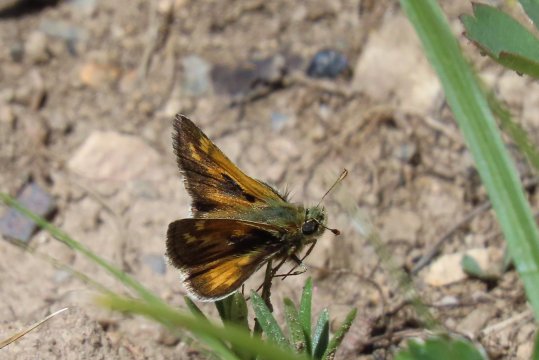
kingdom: Animalia
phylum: Arthropoda
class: Insecta
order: Lepidoptera
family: Hesperiidae
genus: Polites
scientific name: Polites sabuleti
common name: Draco Skipper
